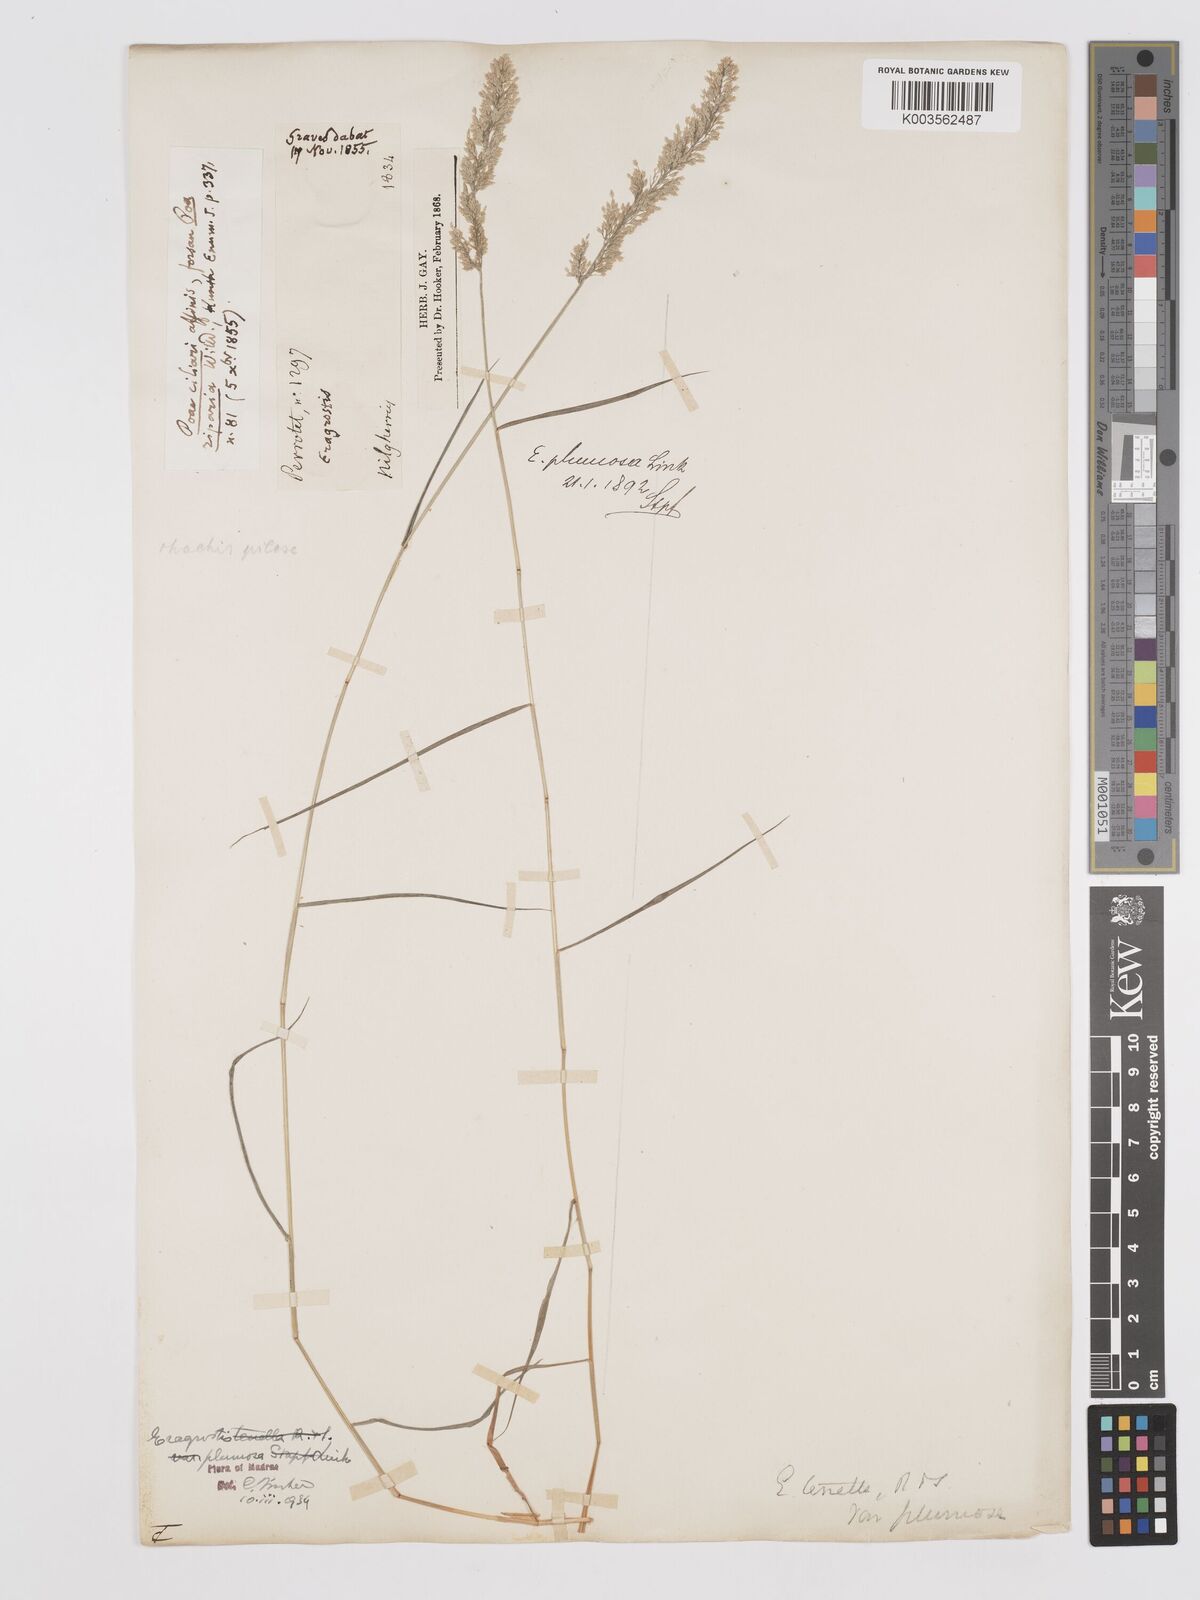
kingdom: Plantae
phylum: Tracheophyta
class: Liliopsida
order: Poales
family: Poaceae
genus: Eragrostis
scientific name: Eragrostis tenella
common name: Japanese lovegrass
